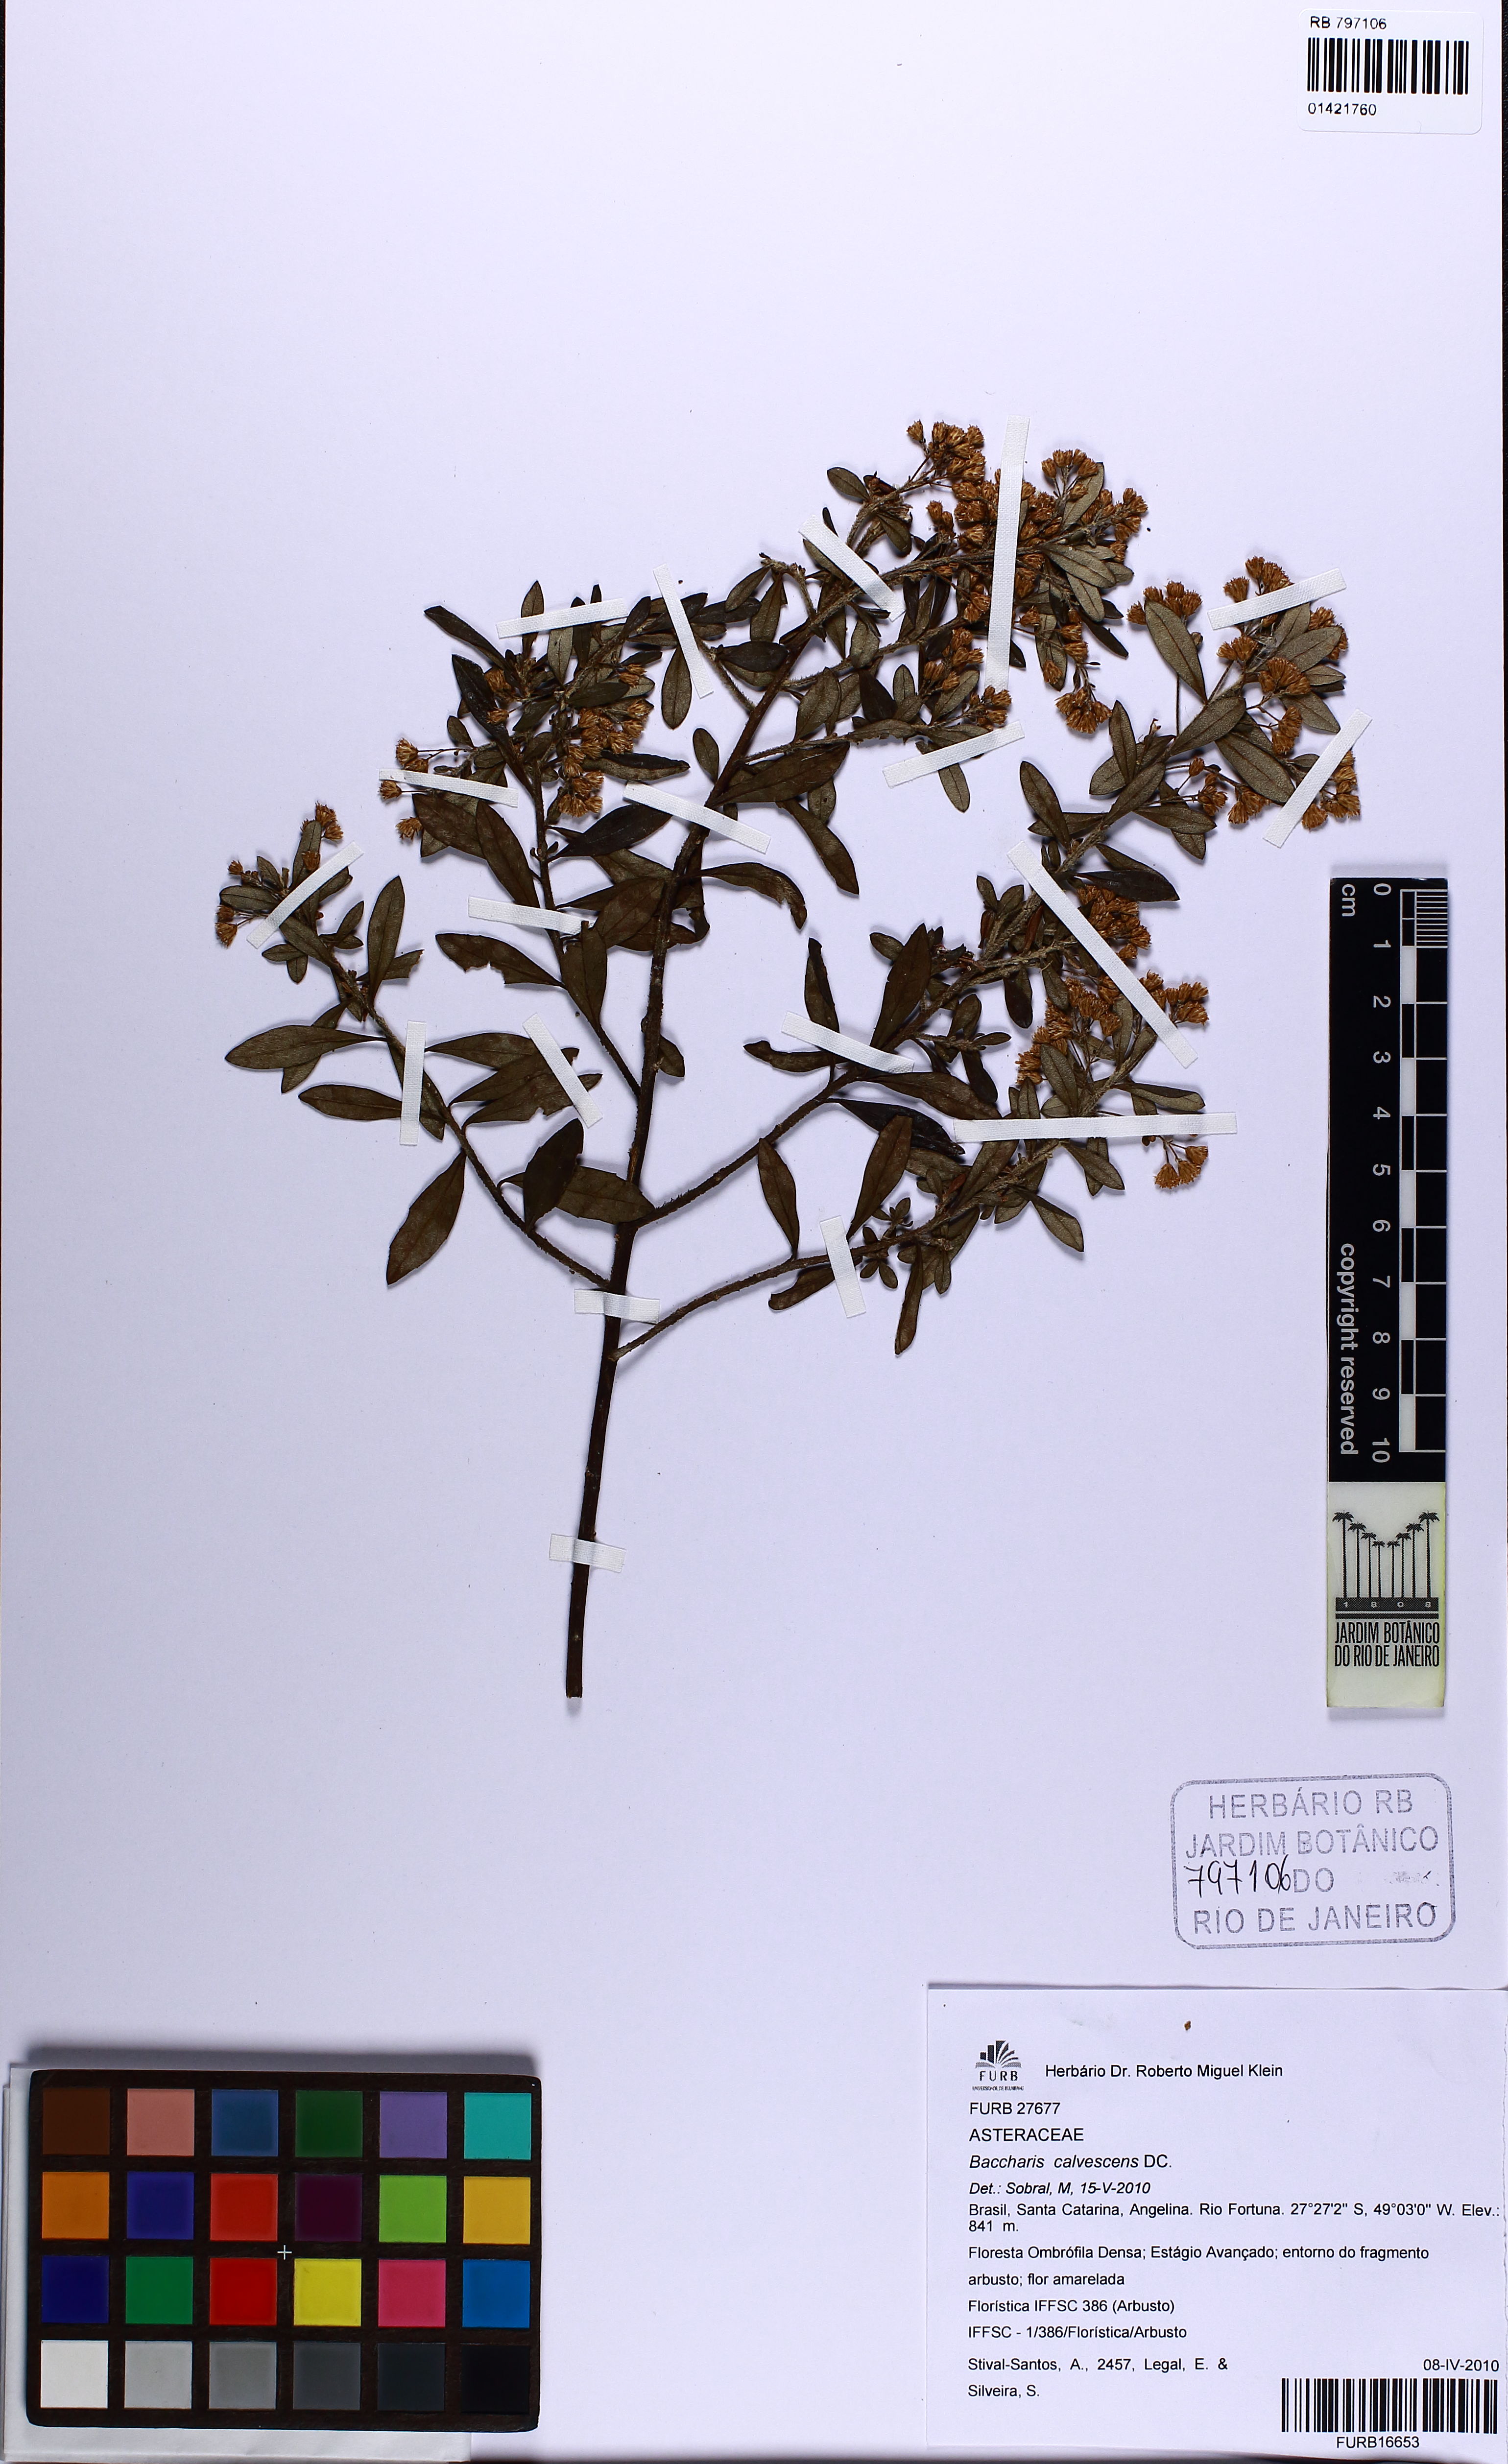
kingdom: Plantae
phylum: Tracheophyta
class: Magnoliopsida
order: Asterales
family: Asteraceae
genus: Baccharis
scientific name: Baccharis calvescens
